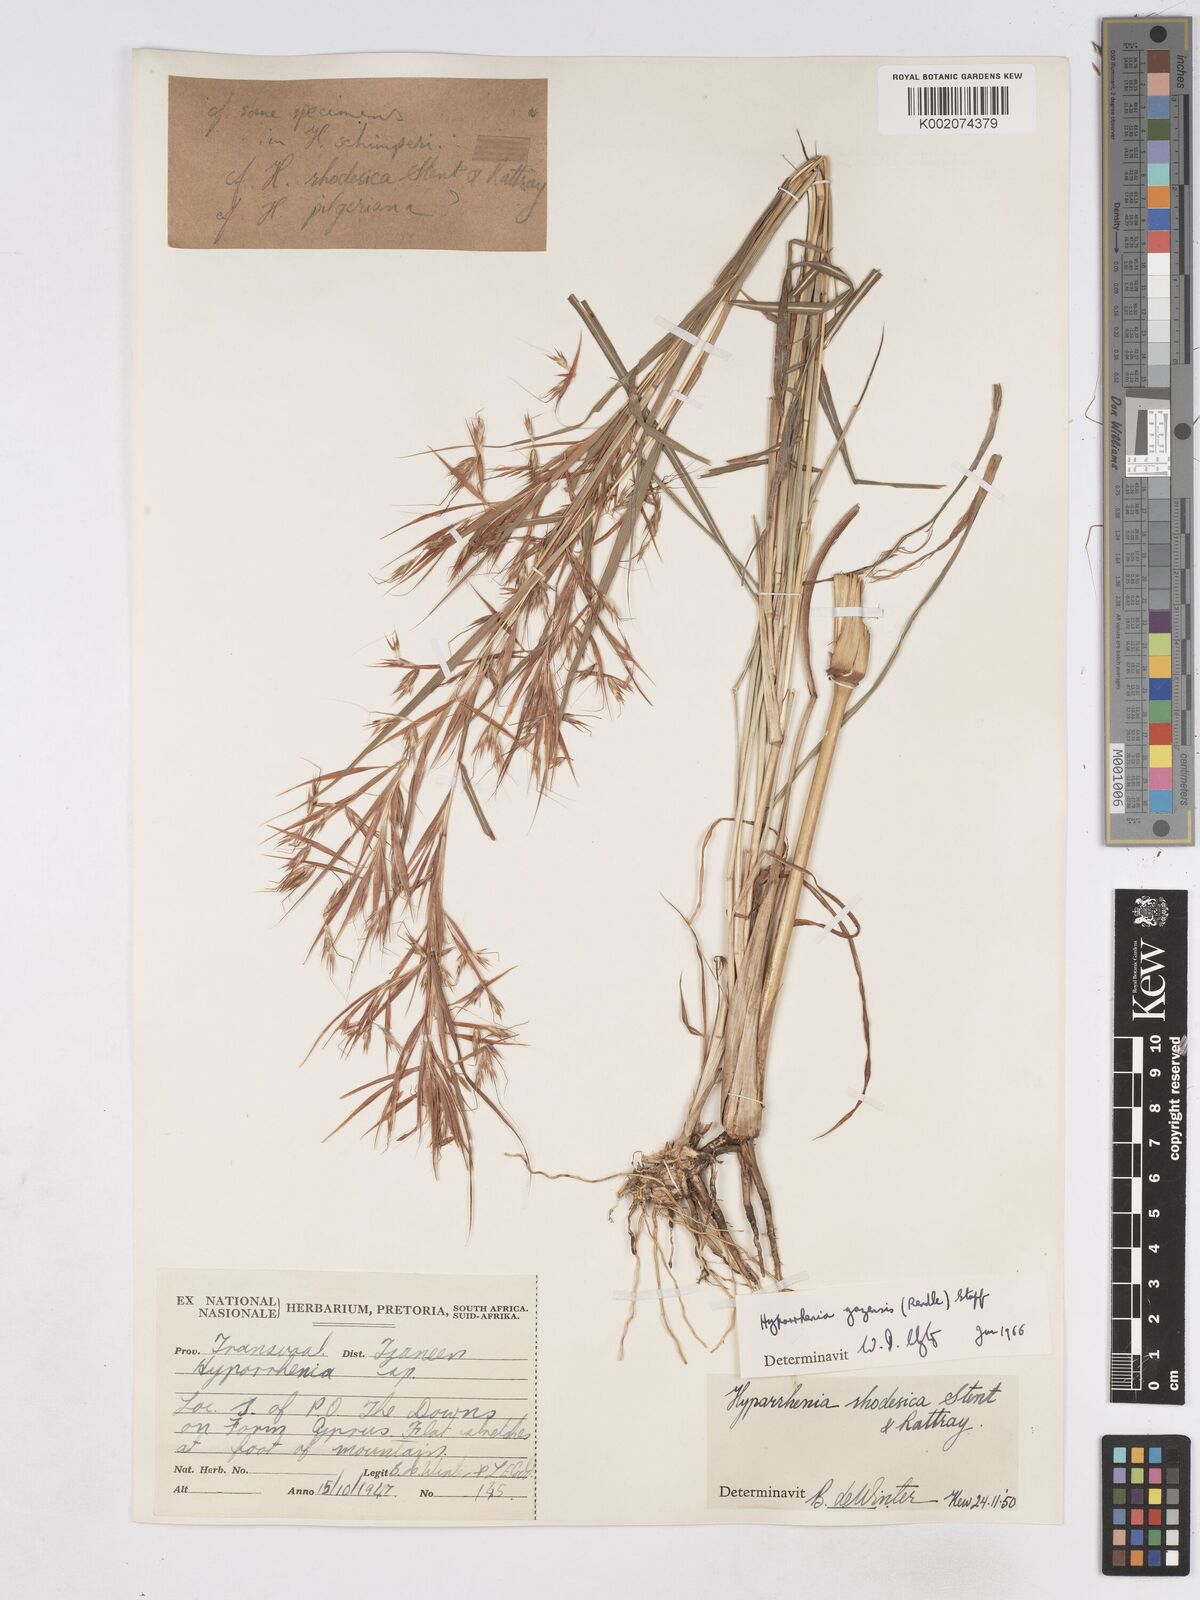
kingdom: Plantae
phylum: Tracheophyta
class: Liliopsida
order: Poales
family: Poaceae
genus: Hyparrhenia
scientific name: Hyparrhenia gazensis
